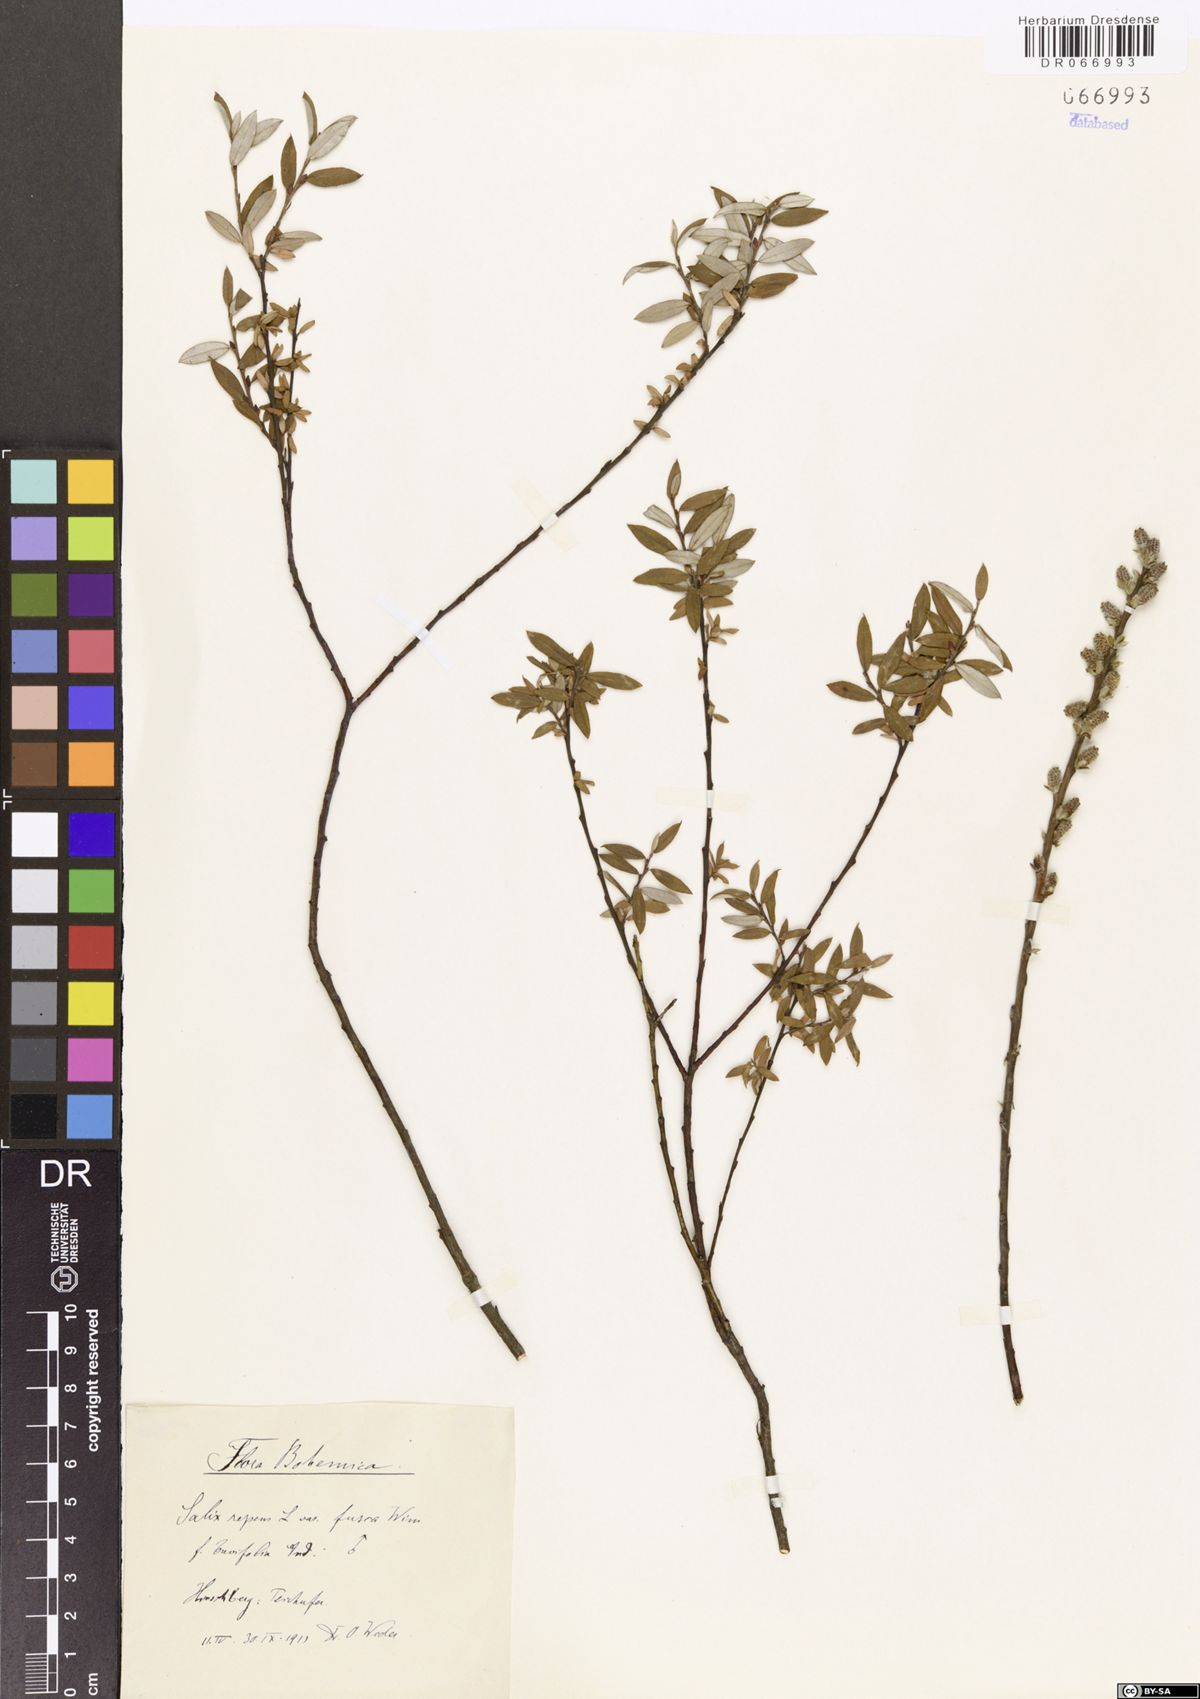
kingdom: Plantae
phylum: Tracheophyta
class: Magnoliopsida
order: Malpighiales
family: Salicaceae
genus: Salix
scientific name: Salix repens
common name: Creeping willow
